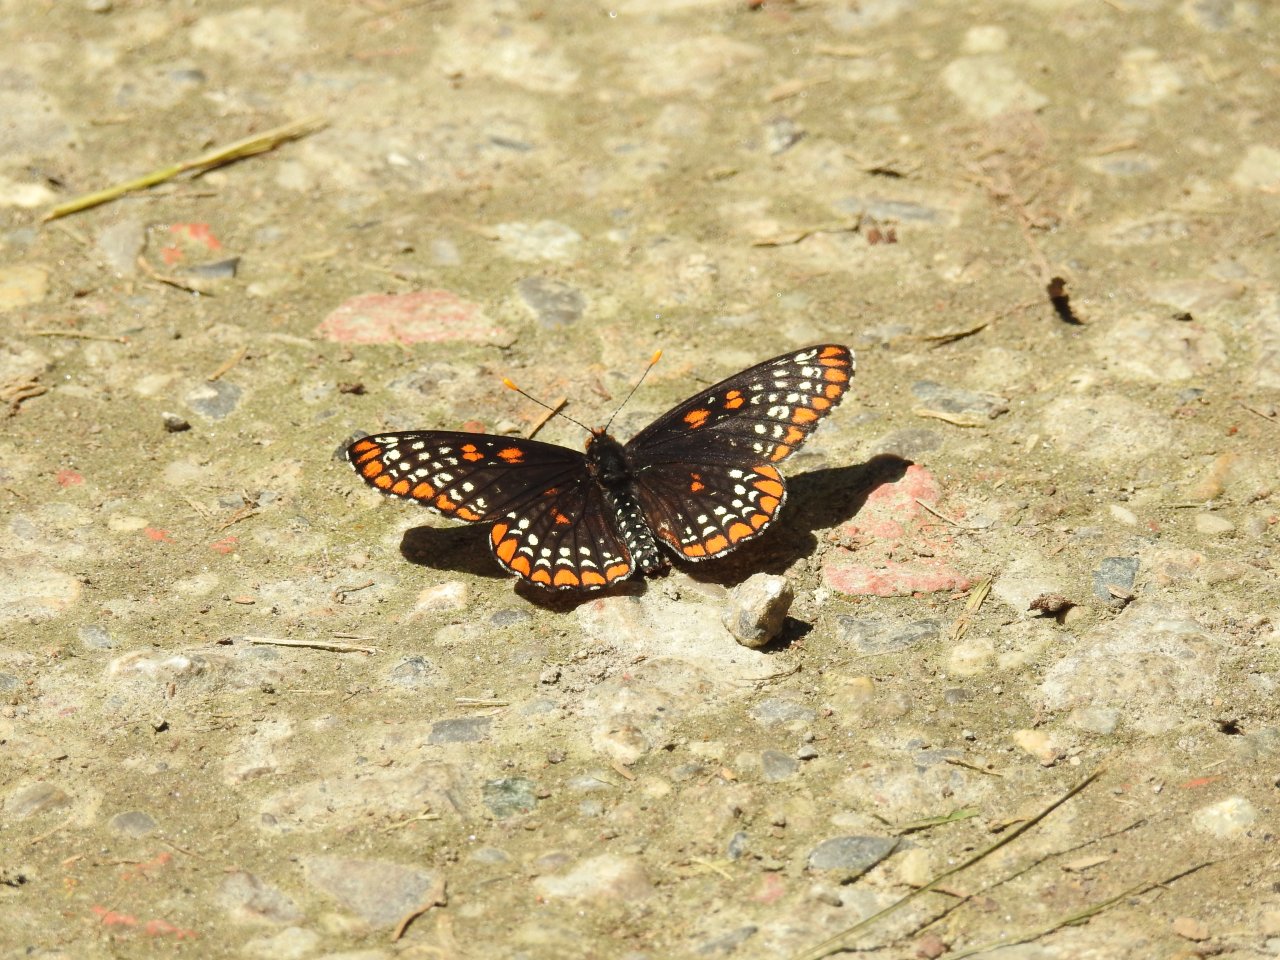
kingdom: Animalia
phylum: Arthropoda
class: Insecta
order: Lepidoptera
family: Nymphalidae
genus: Euphydryas
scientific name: Euphydryas phaeton
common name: Baltimore Checkerspot
